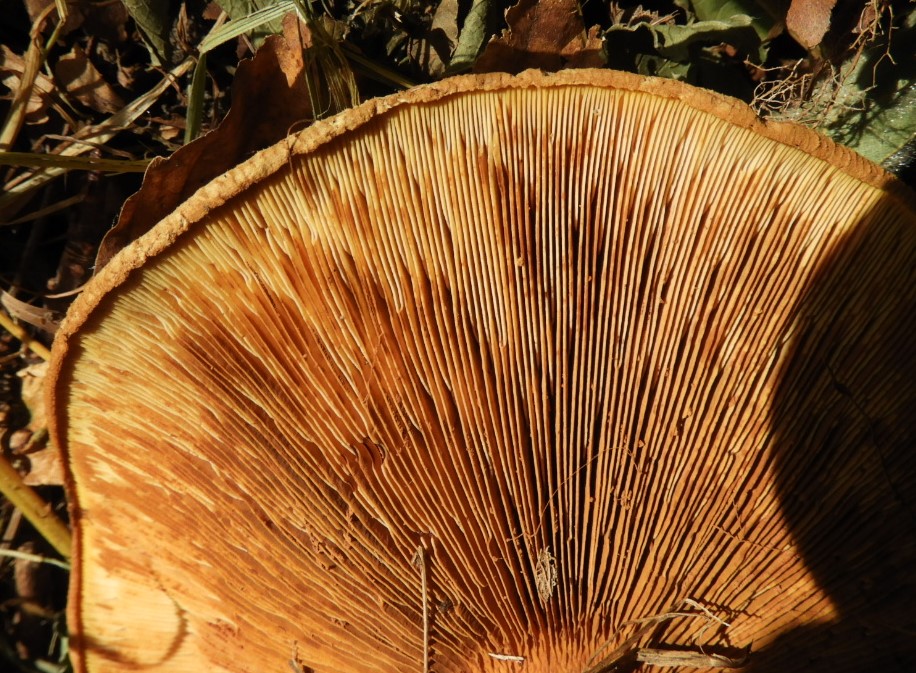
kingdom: Fungi
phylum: Basidiomycota
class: Agaricomycetes
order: Boletales
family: Paxillaceae
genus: Paxillus
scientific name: Paxillus involutus
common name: almindelig netbladhat
